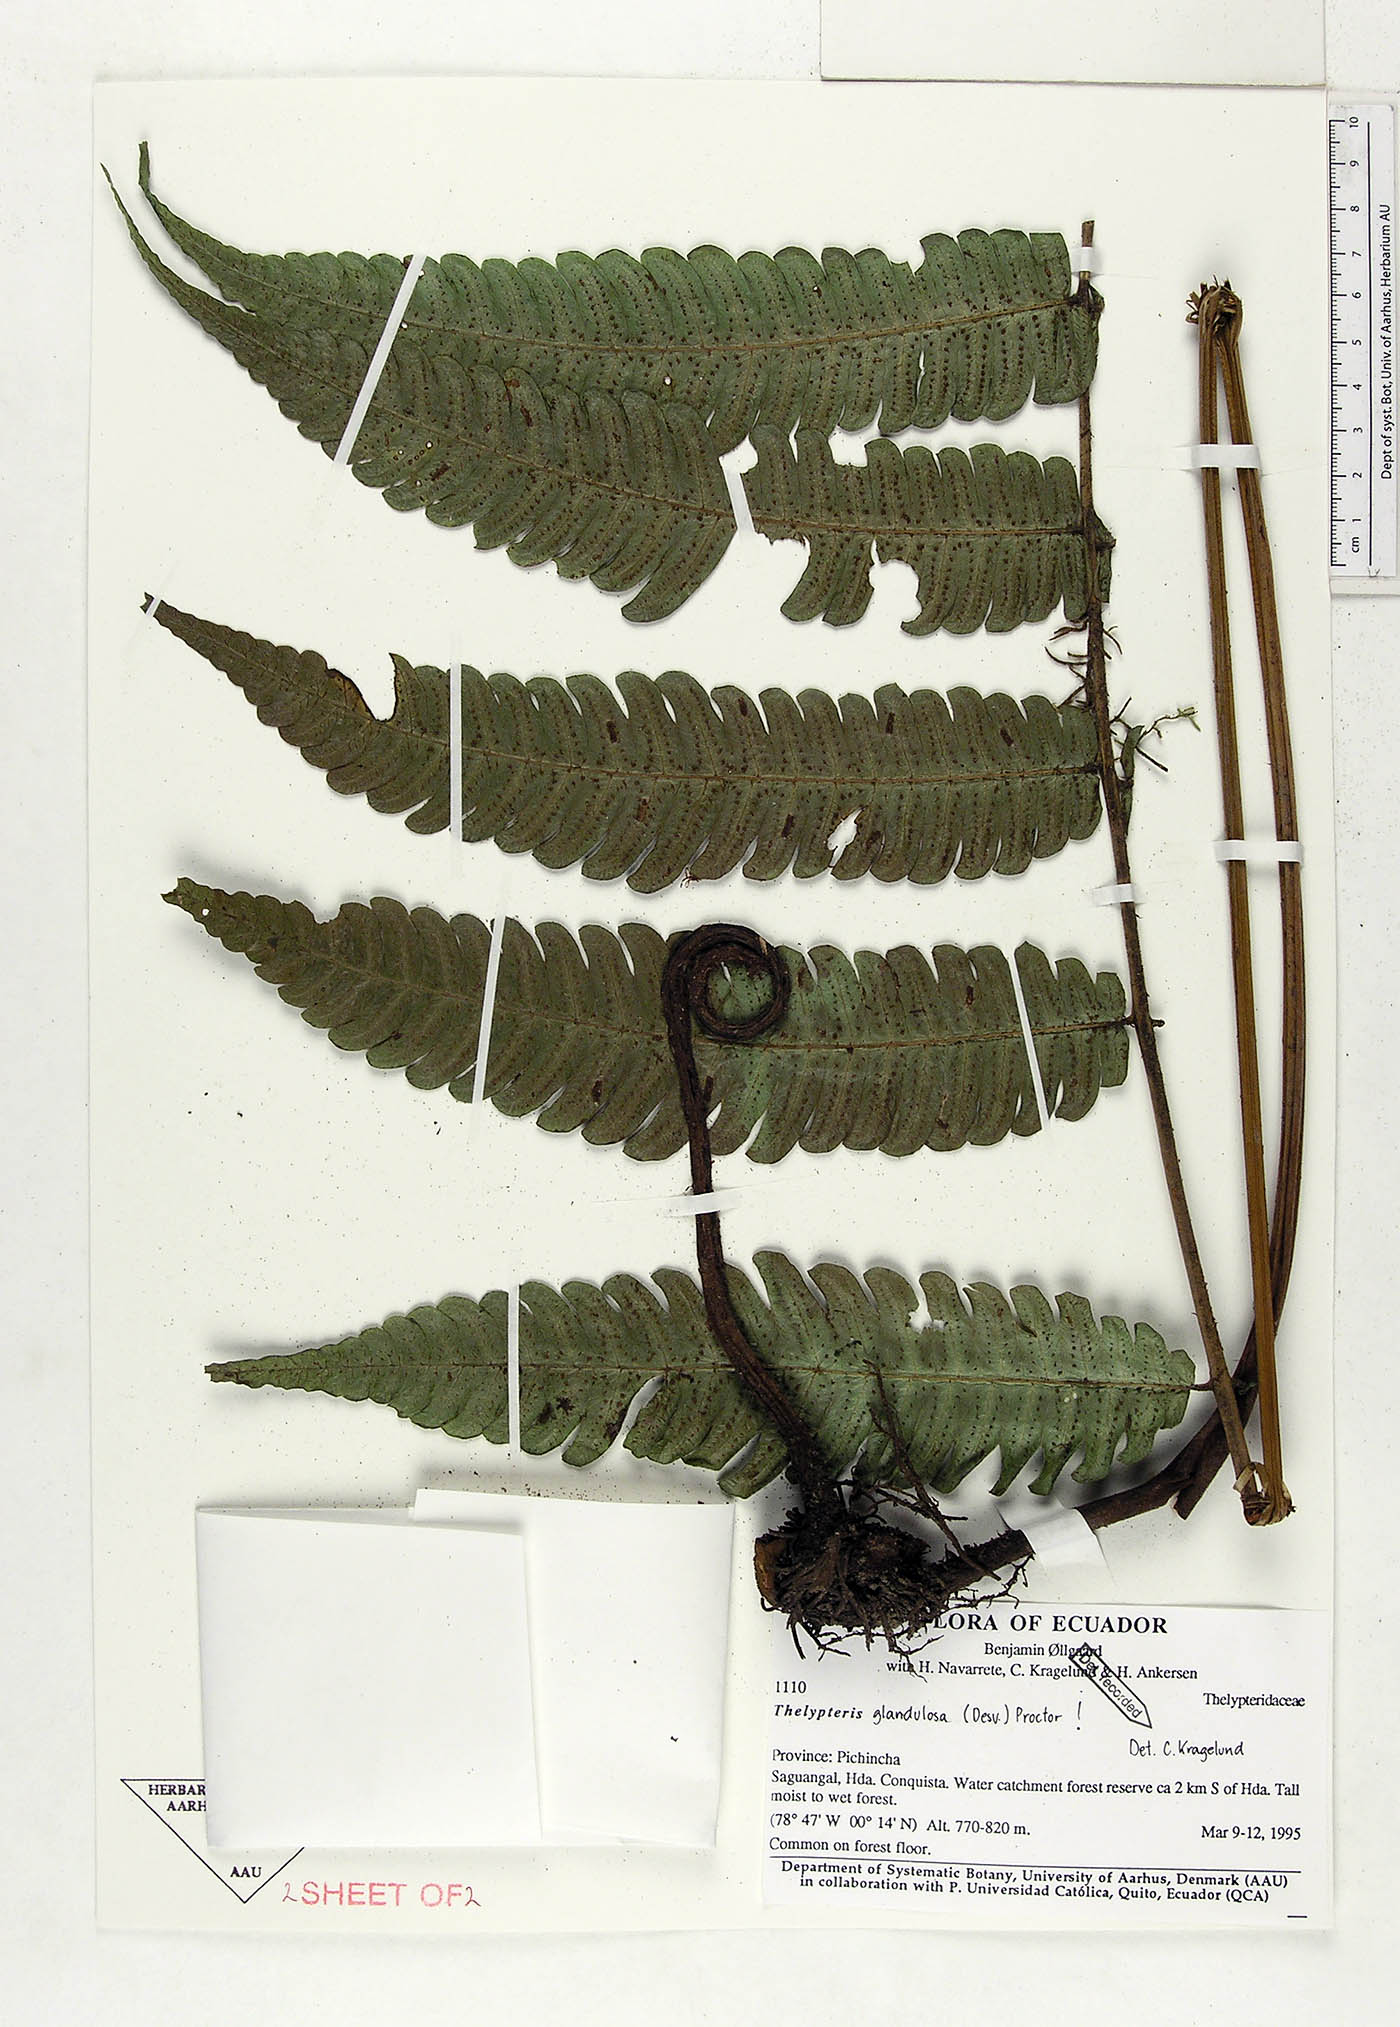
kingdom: Plantae
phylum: Tracheophyta
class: Polypodiopsida
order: Polypodiales
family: Thelypteridaceae
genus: Steiropteris
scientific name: Steiropteris glandulosa
